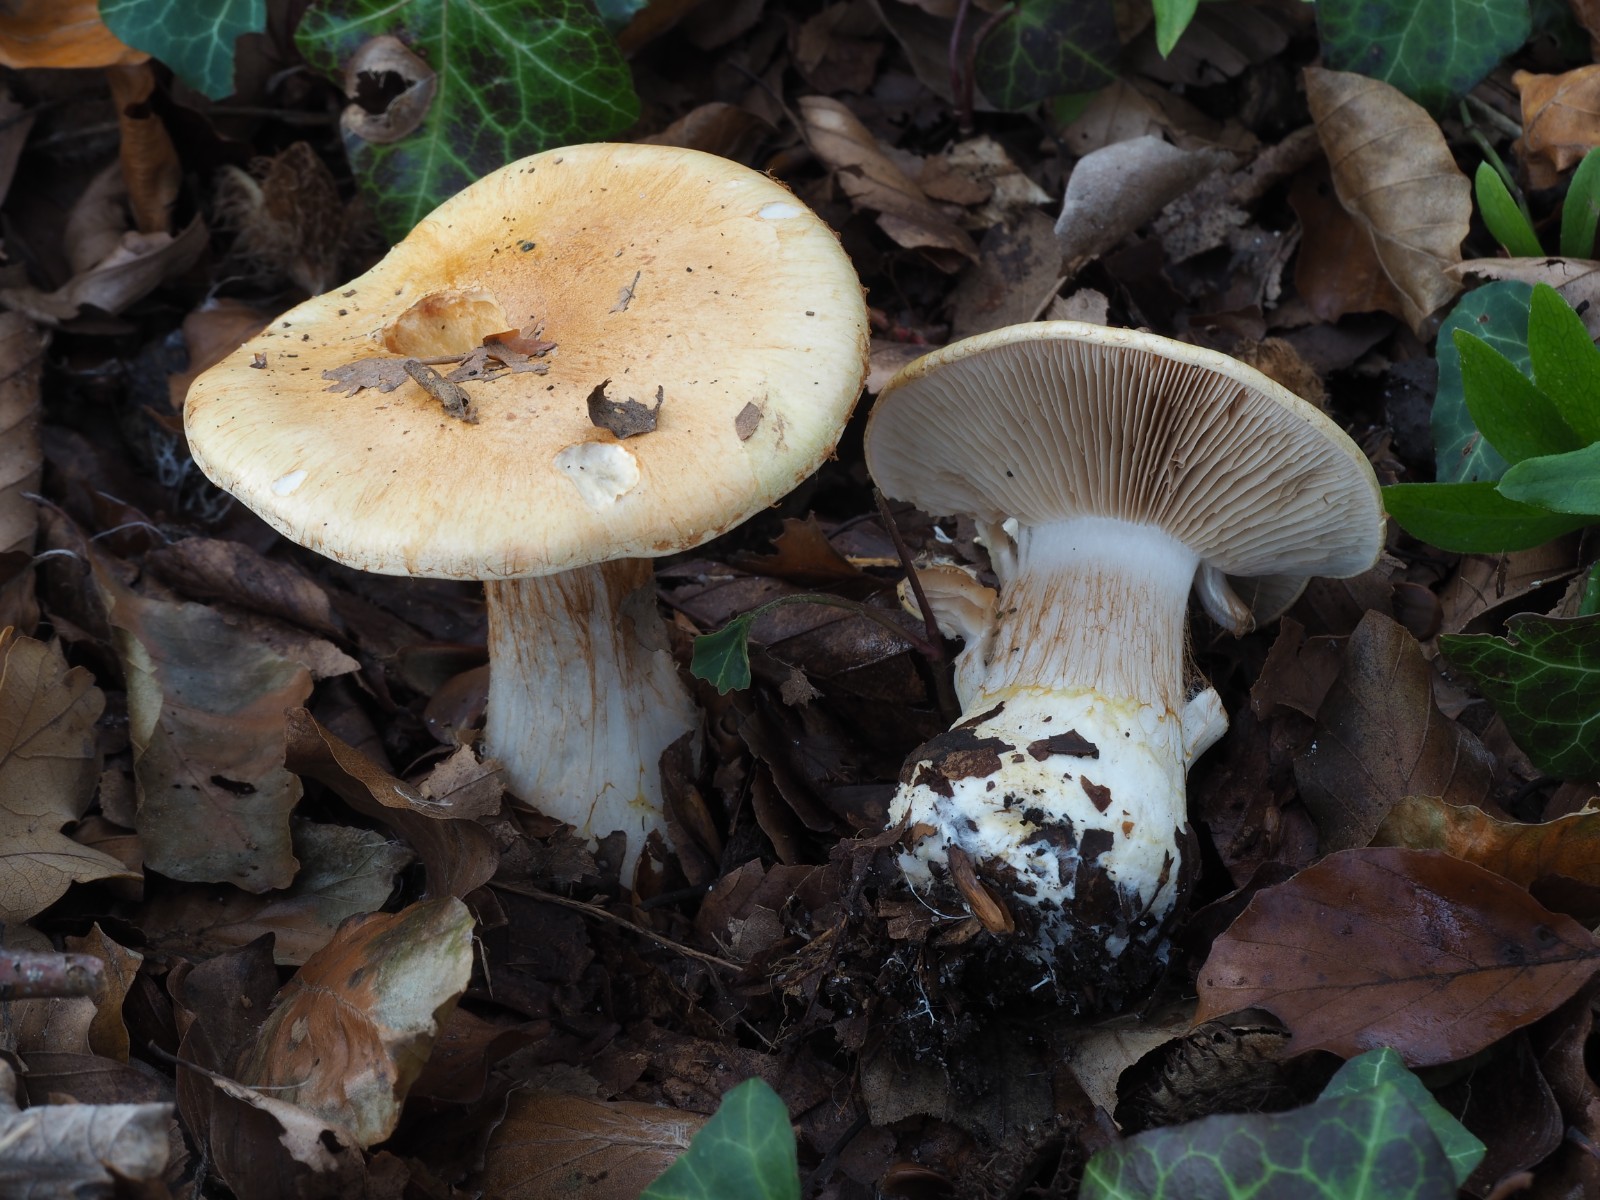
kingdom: Fungi
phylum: Basidiomycota
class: Agaricomycetes
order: Agaricales
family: Cortinariaceae
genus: Phlegmacium
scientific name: Phlegmacium rhizophorum
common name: finkornet slørhat
